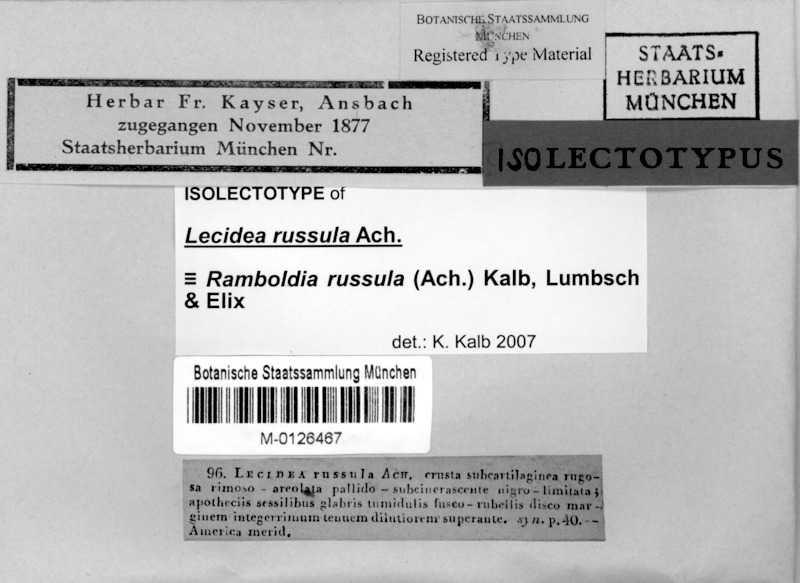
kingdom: Fungi
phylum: Ascomycota
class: Lecanoromycetes
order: Lecanorales
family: Ramboldiaceae
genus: Ramboldia
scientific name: Ramboldia russula
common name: Red heads
